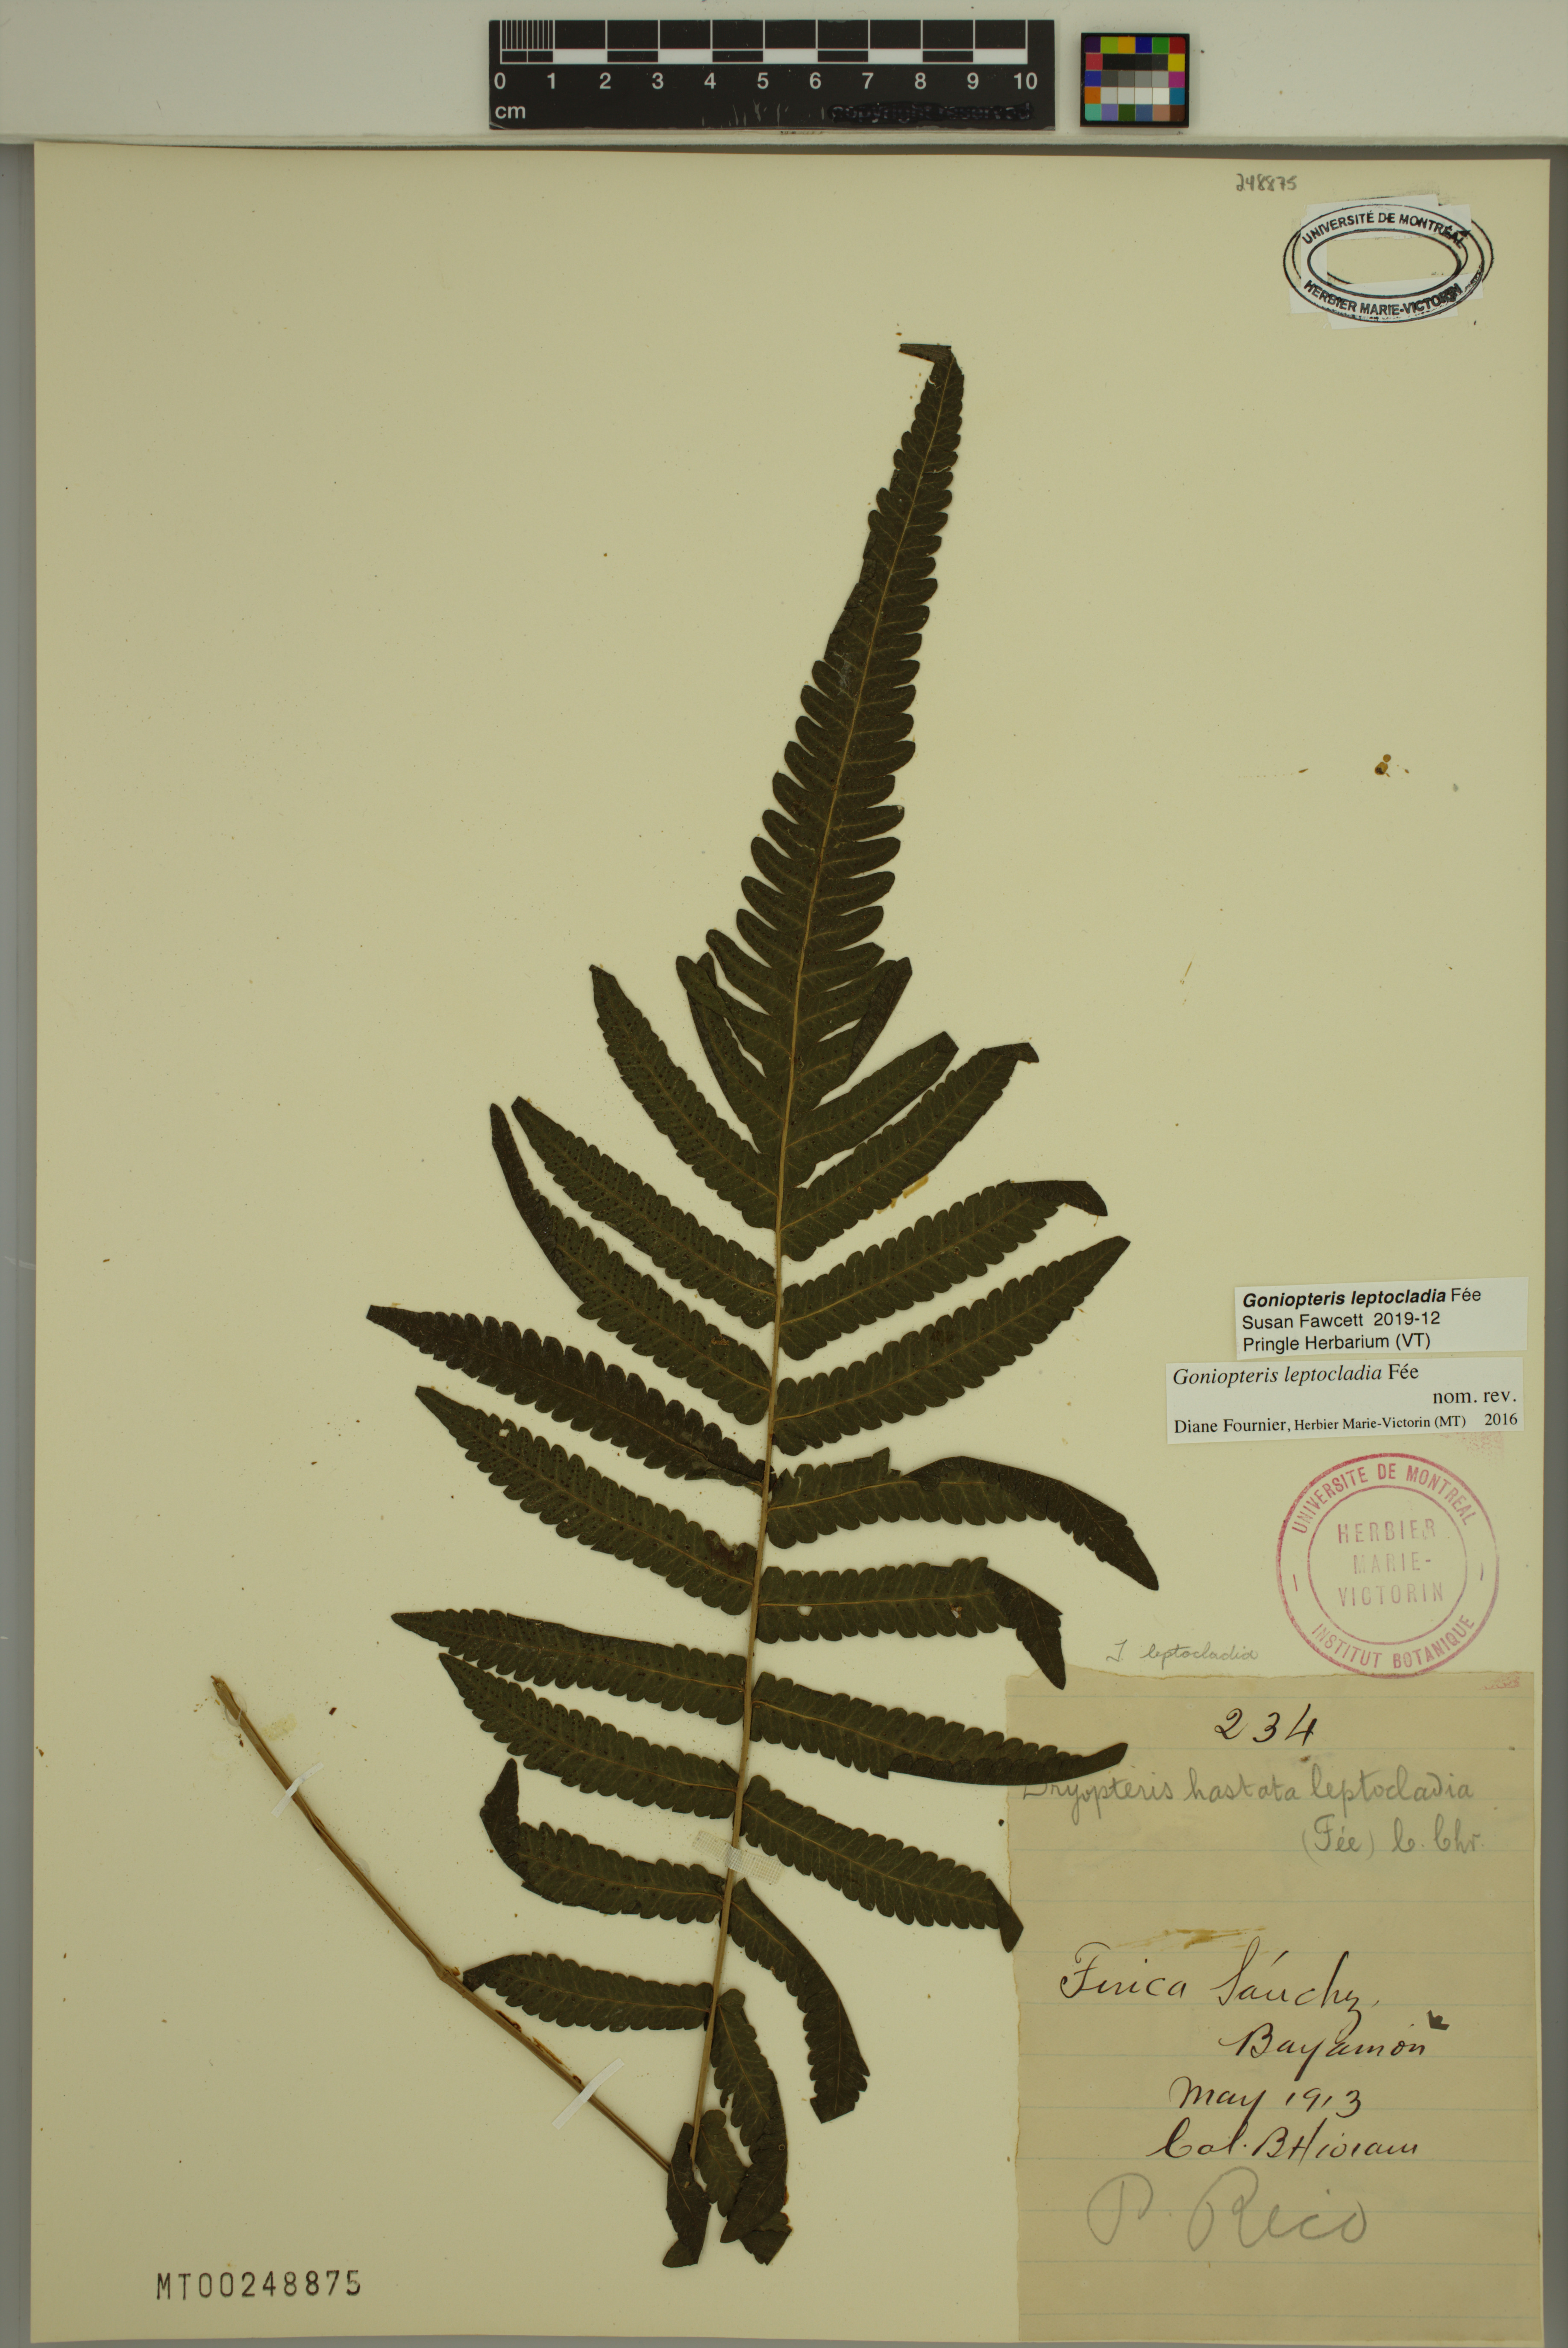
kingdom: Plantae
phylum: Tracheophyta
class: Polypodiopsida
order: Polypodiales
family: Thelypteridaceae
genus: Goniopteris
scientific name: Goniopteris leptocladia
